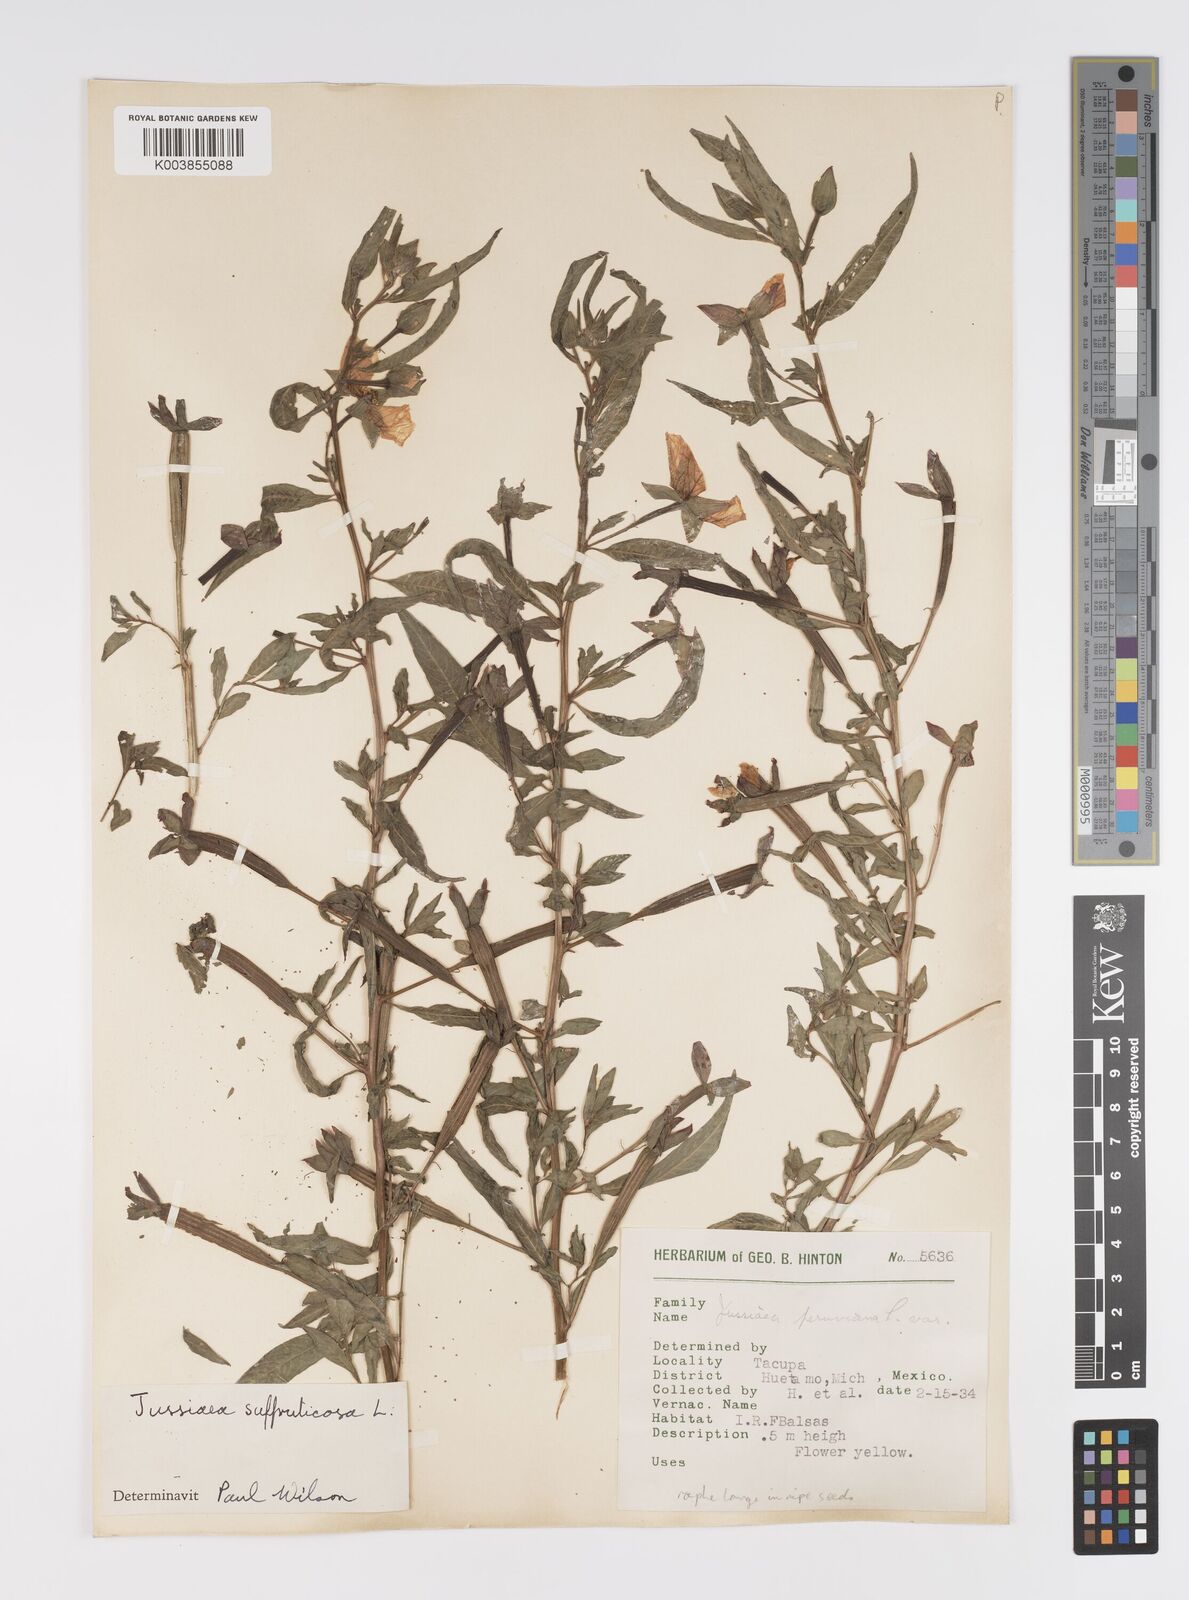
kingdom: Plantae
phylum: Tracheophyta
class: Magnoliopsida
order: Myrtales
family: Onagraceae
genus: Ludwigia
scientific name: Ludwigia octovalvis
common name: Water-primrose
